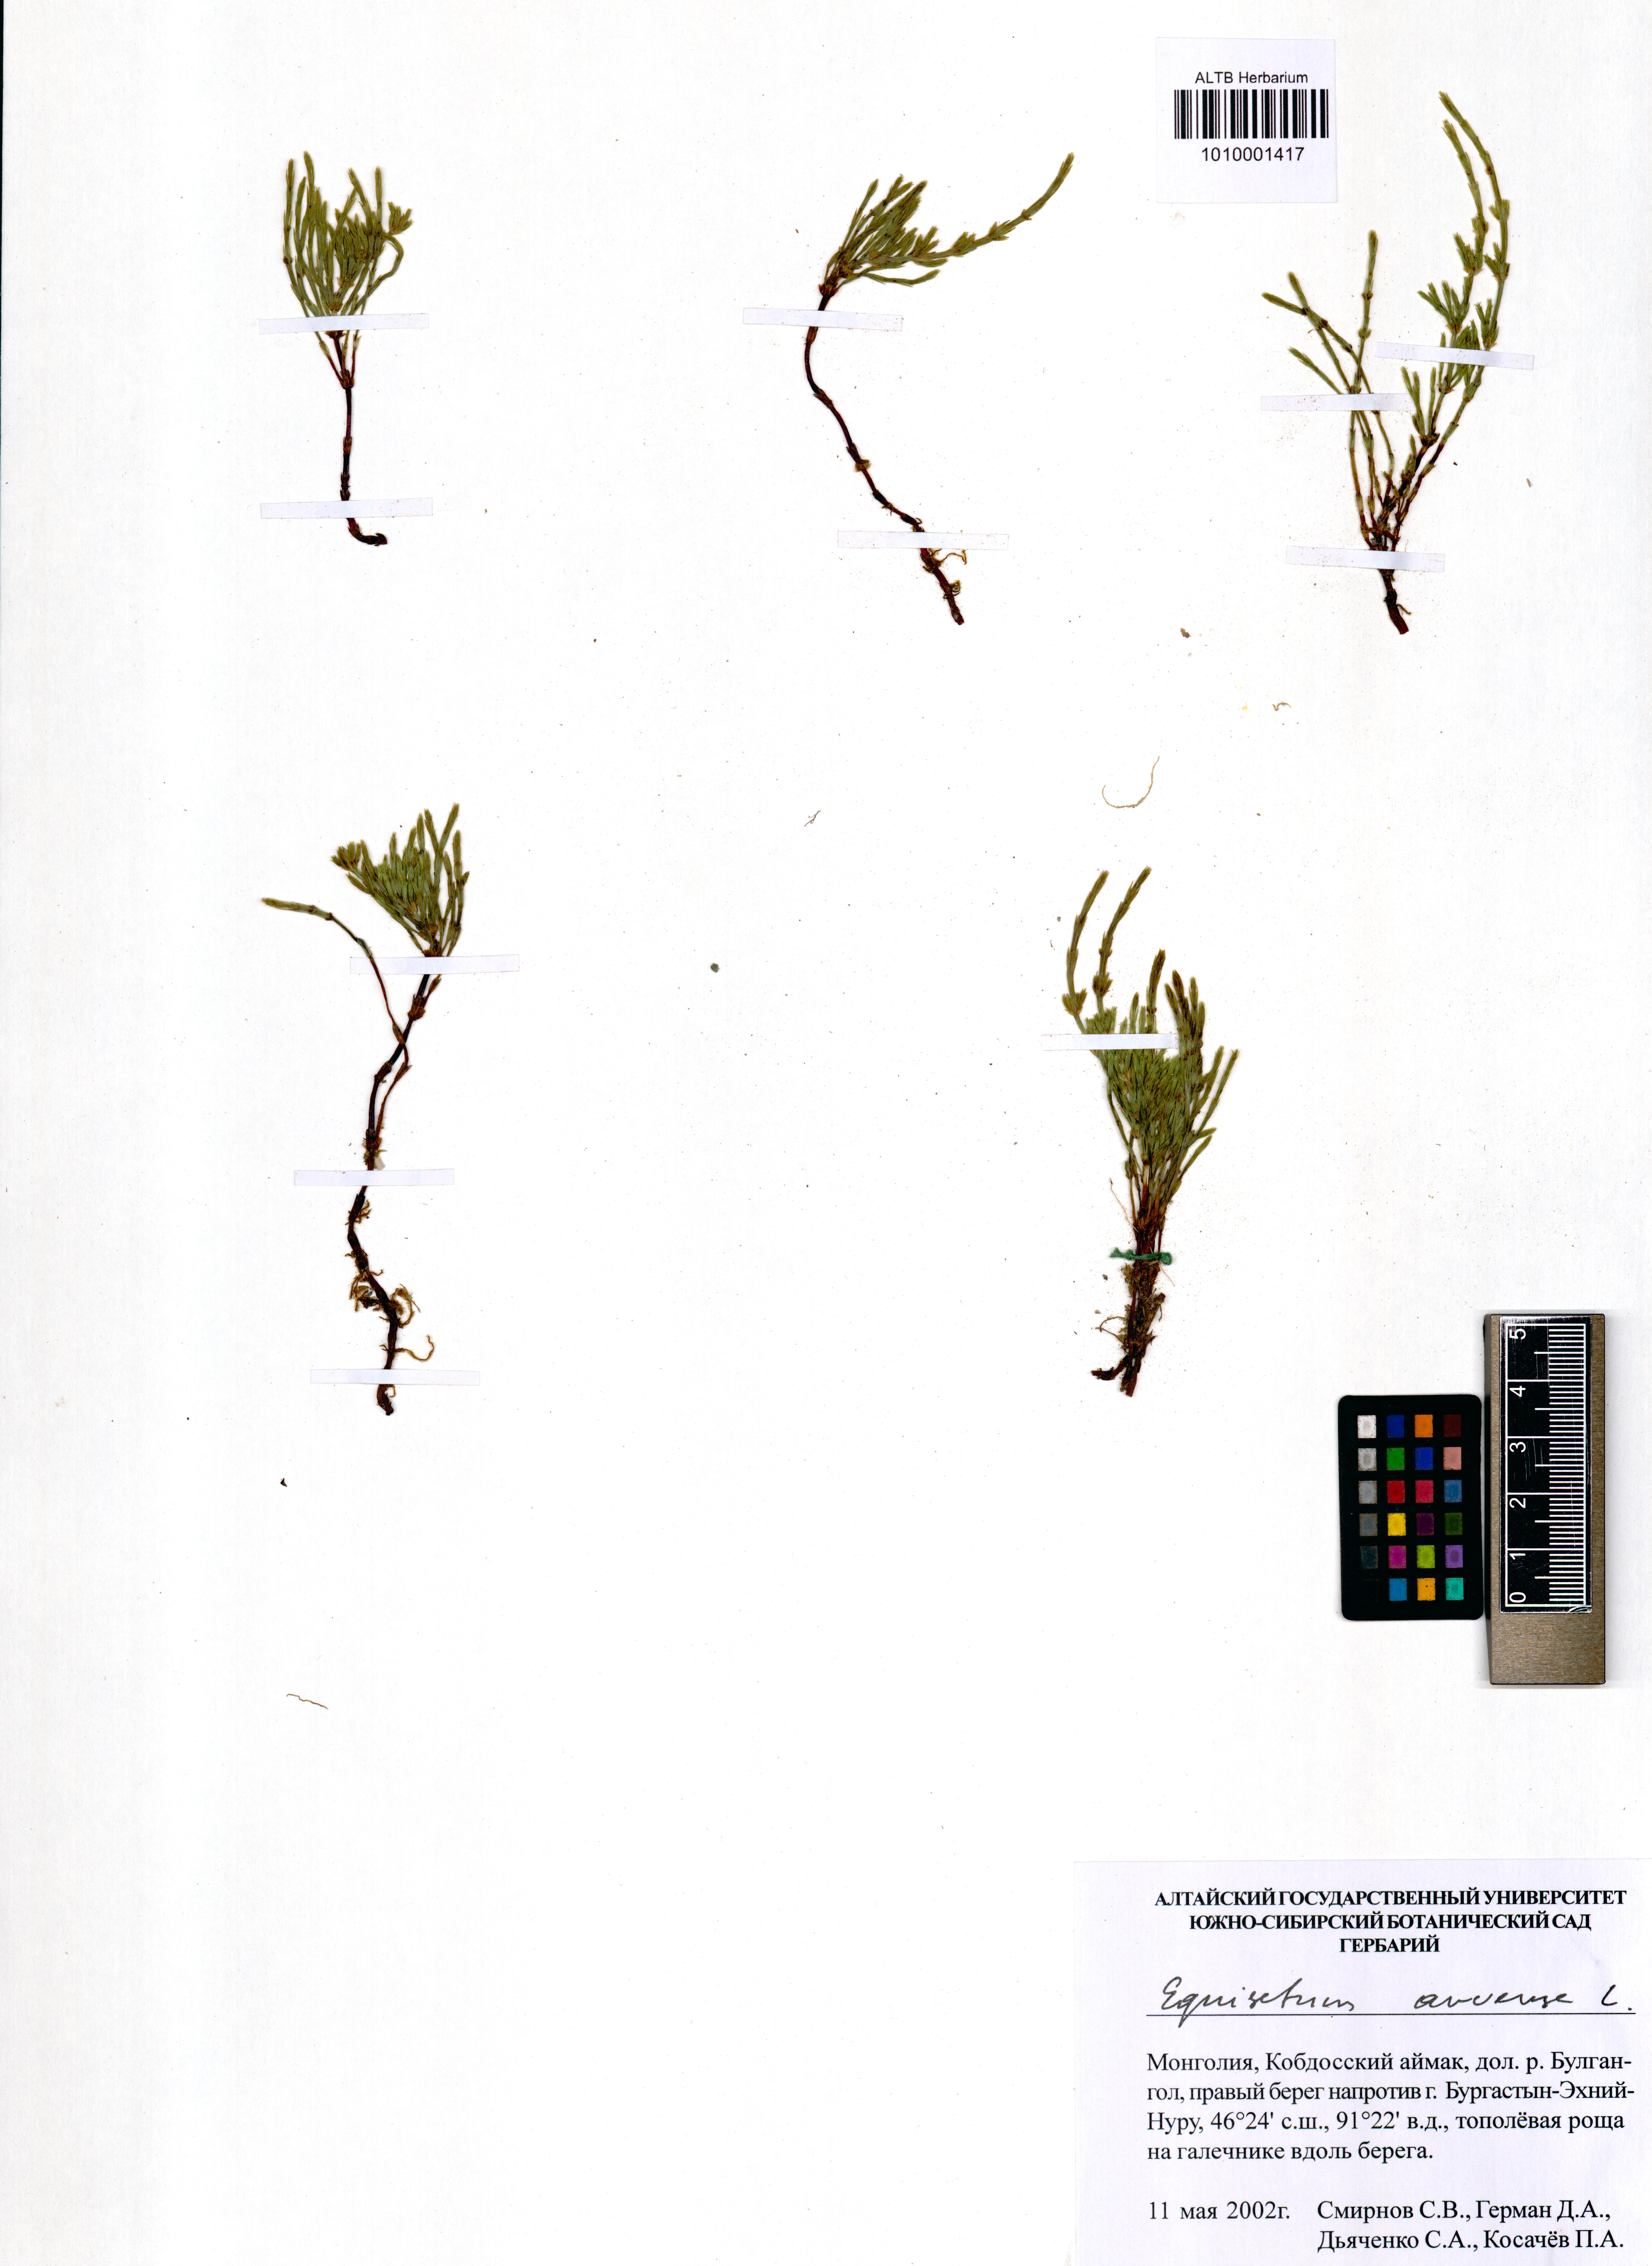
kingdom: Plantae
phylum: Tracheophyta
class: Polypodiopsida
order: Equisetales
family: Equisetaceae
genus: Equisetum
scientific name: Equisetum arvense
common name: Field horsetail
